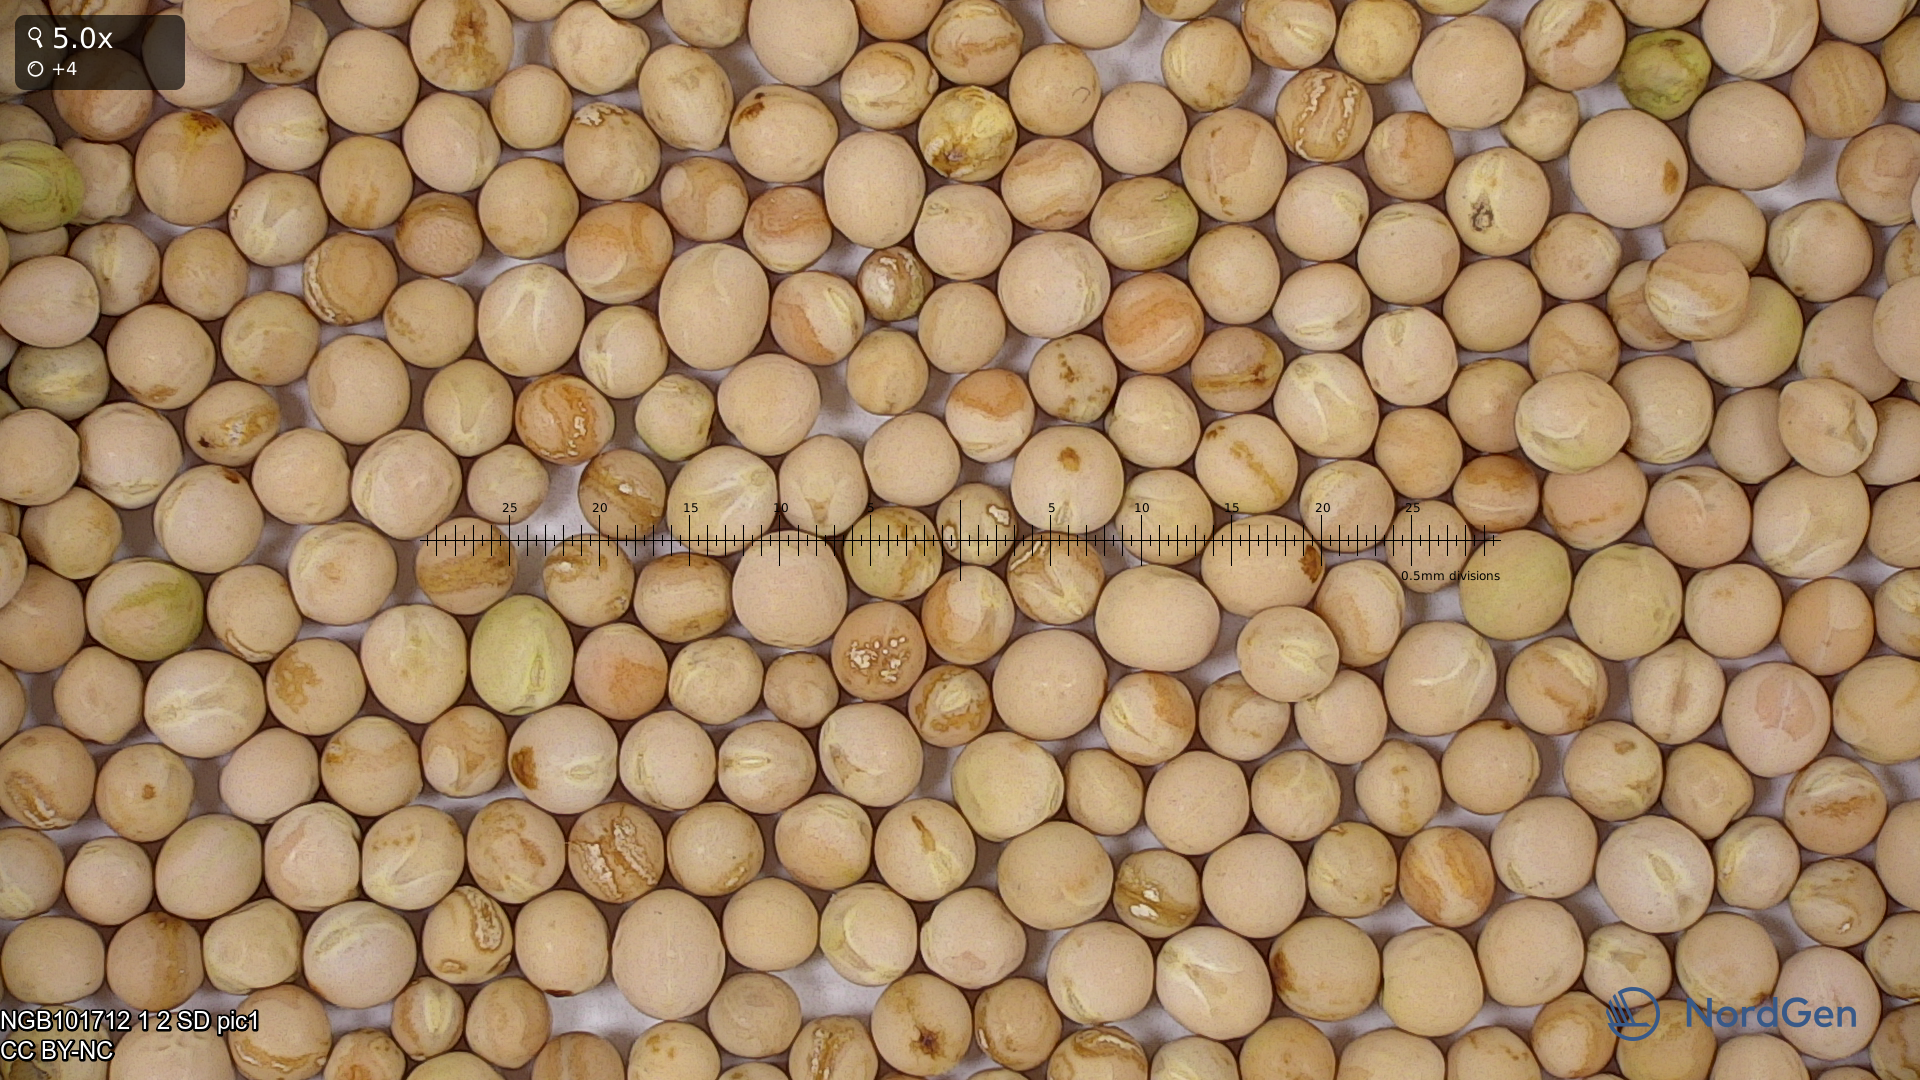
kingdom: Plantae
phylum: Tracheophyta
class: Magnoliopsida
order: Fabales
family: Fabaceae
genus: Lathyrus
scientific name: Lathyrus oleraceus
